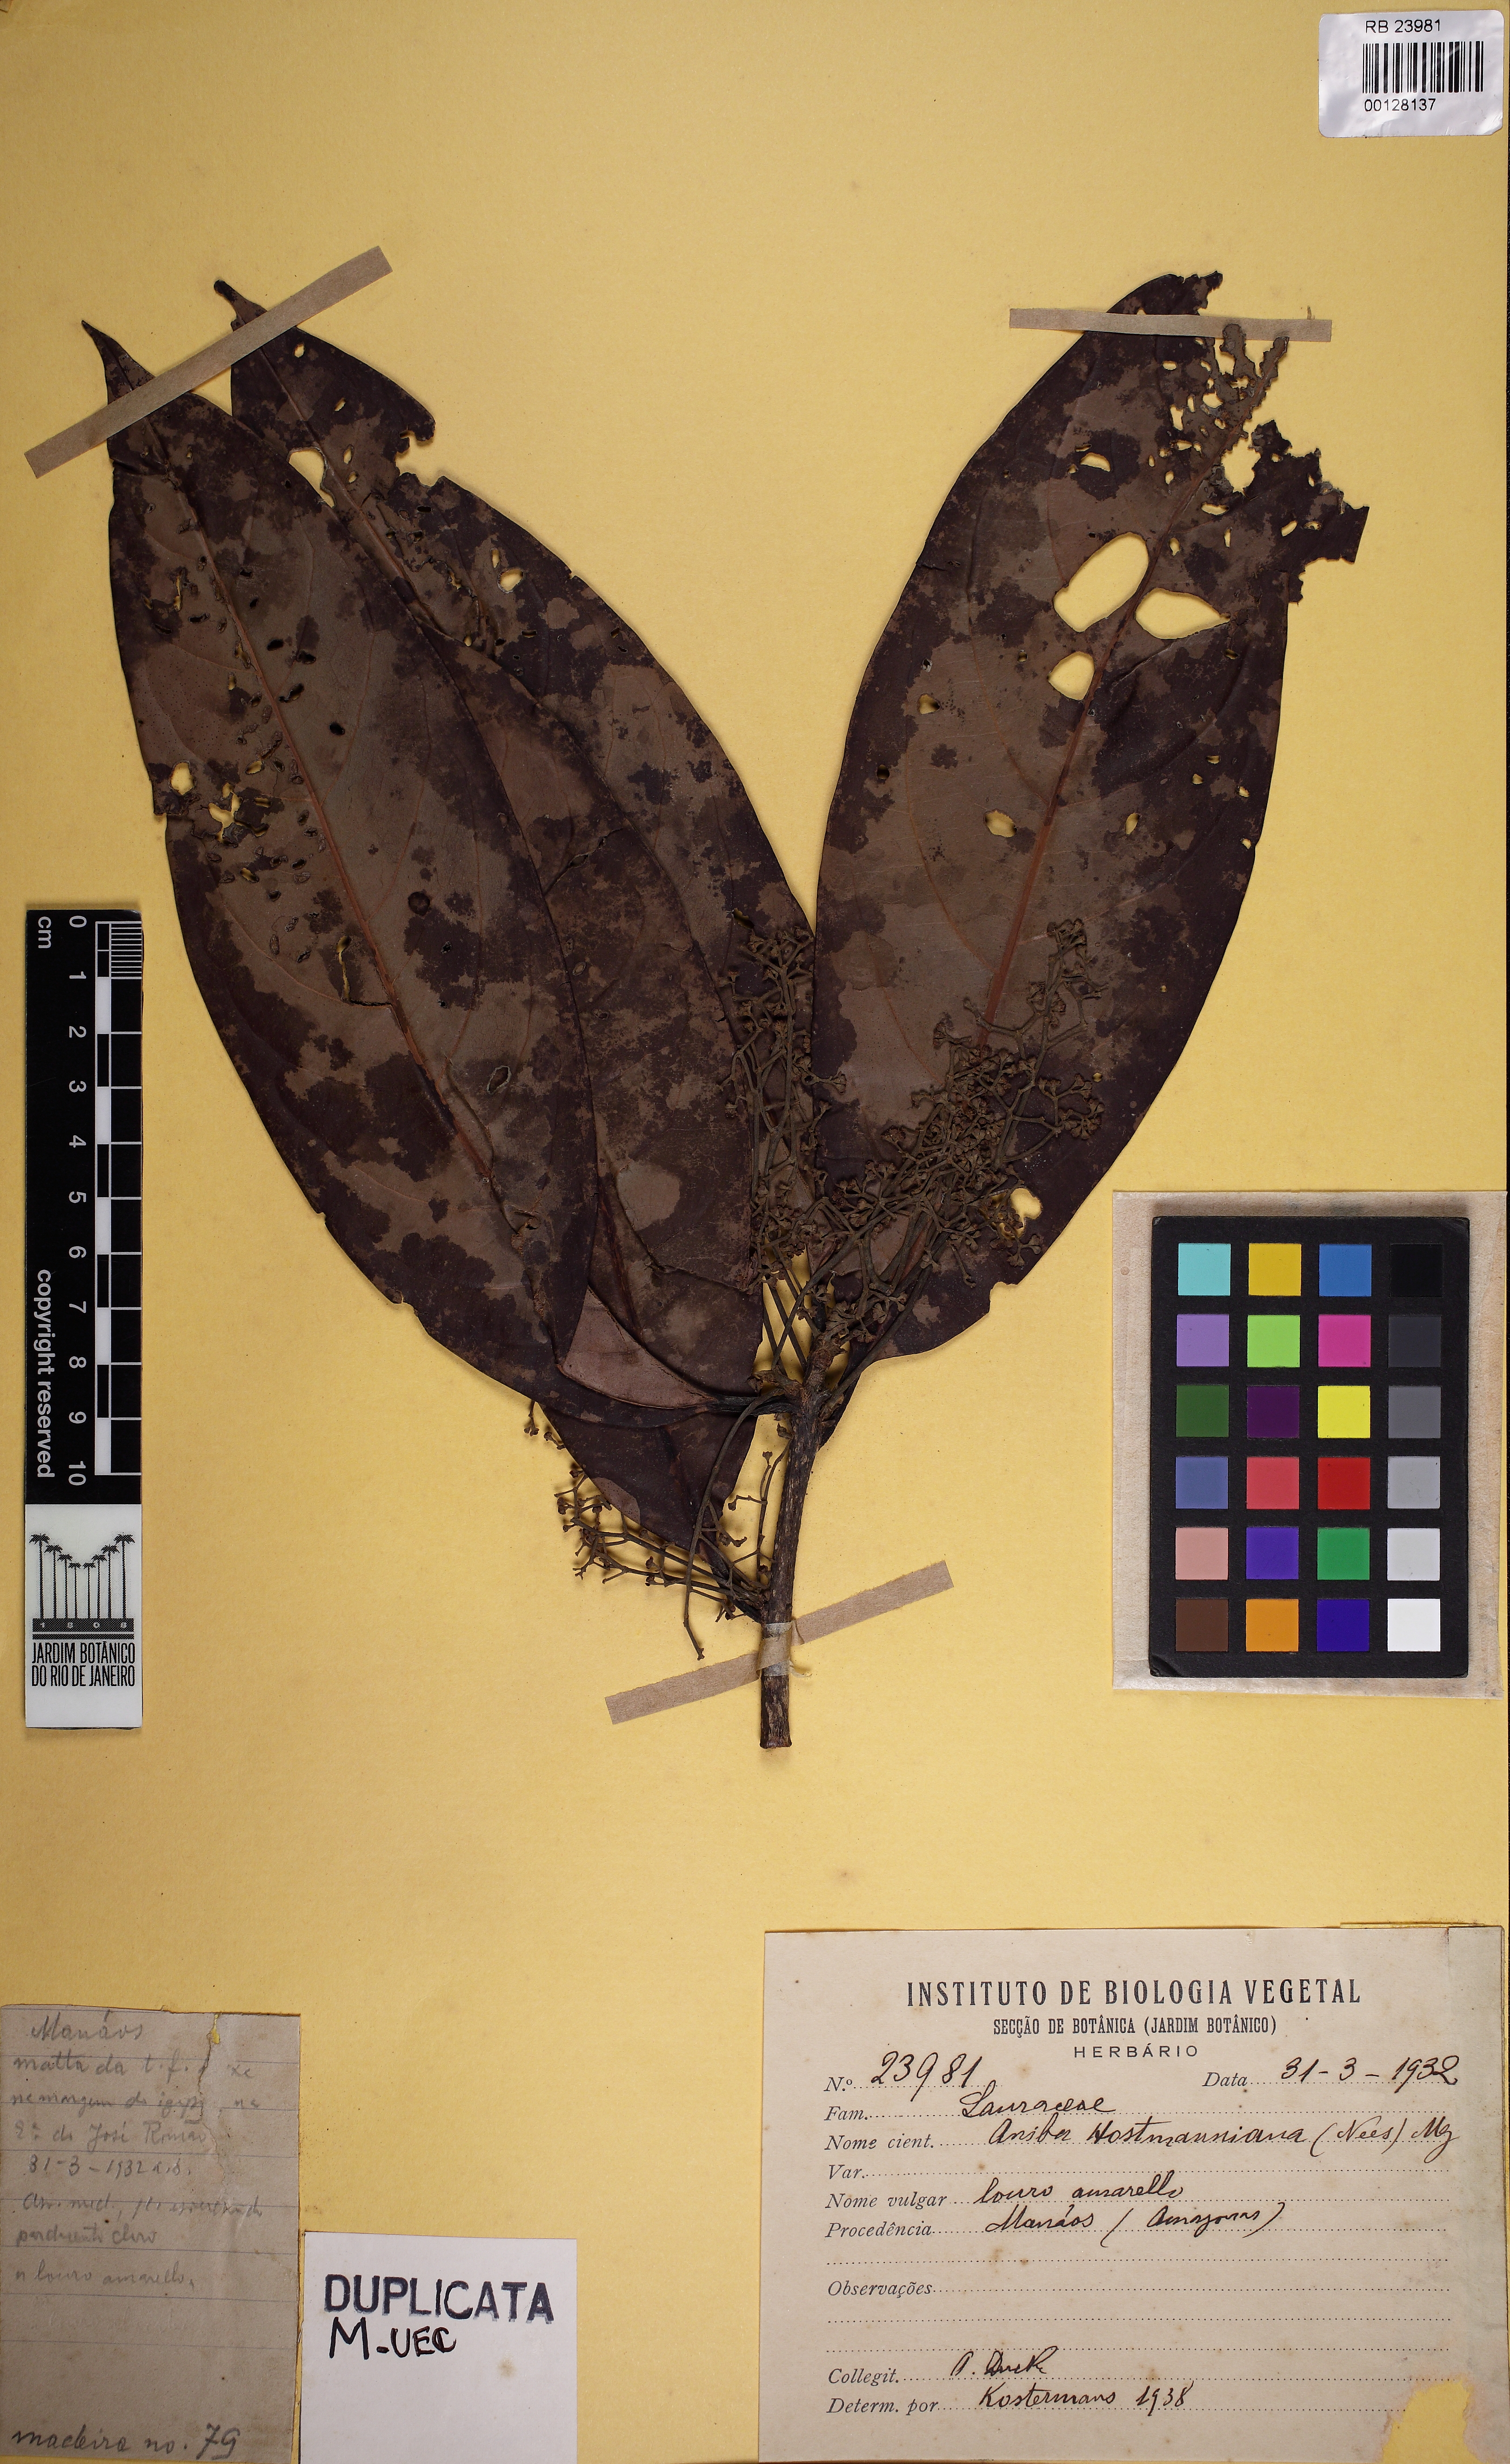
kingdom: Plantae
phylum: Tracheophyta
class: Magnoliopsida
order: Laurales
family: Lauraceae
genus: Aniba
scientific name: Aniba hostmanniana
